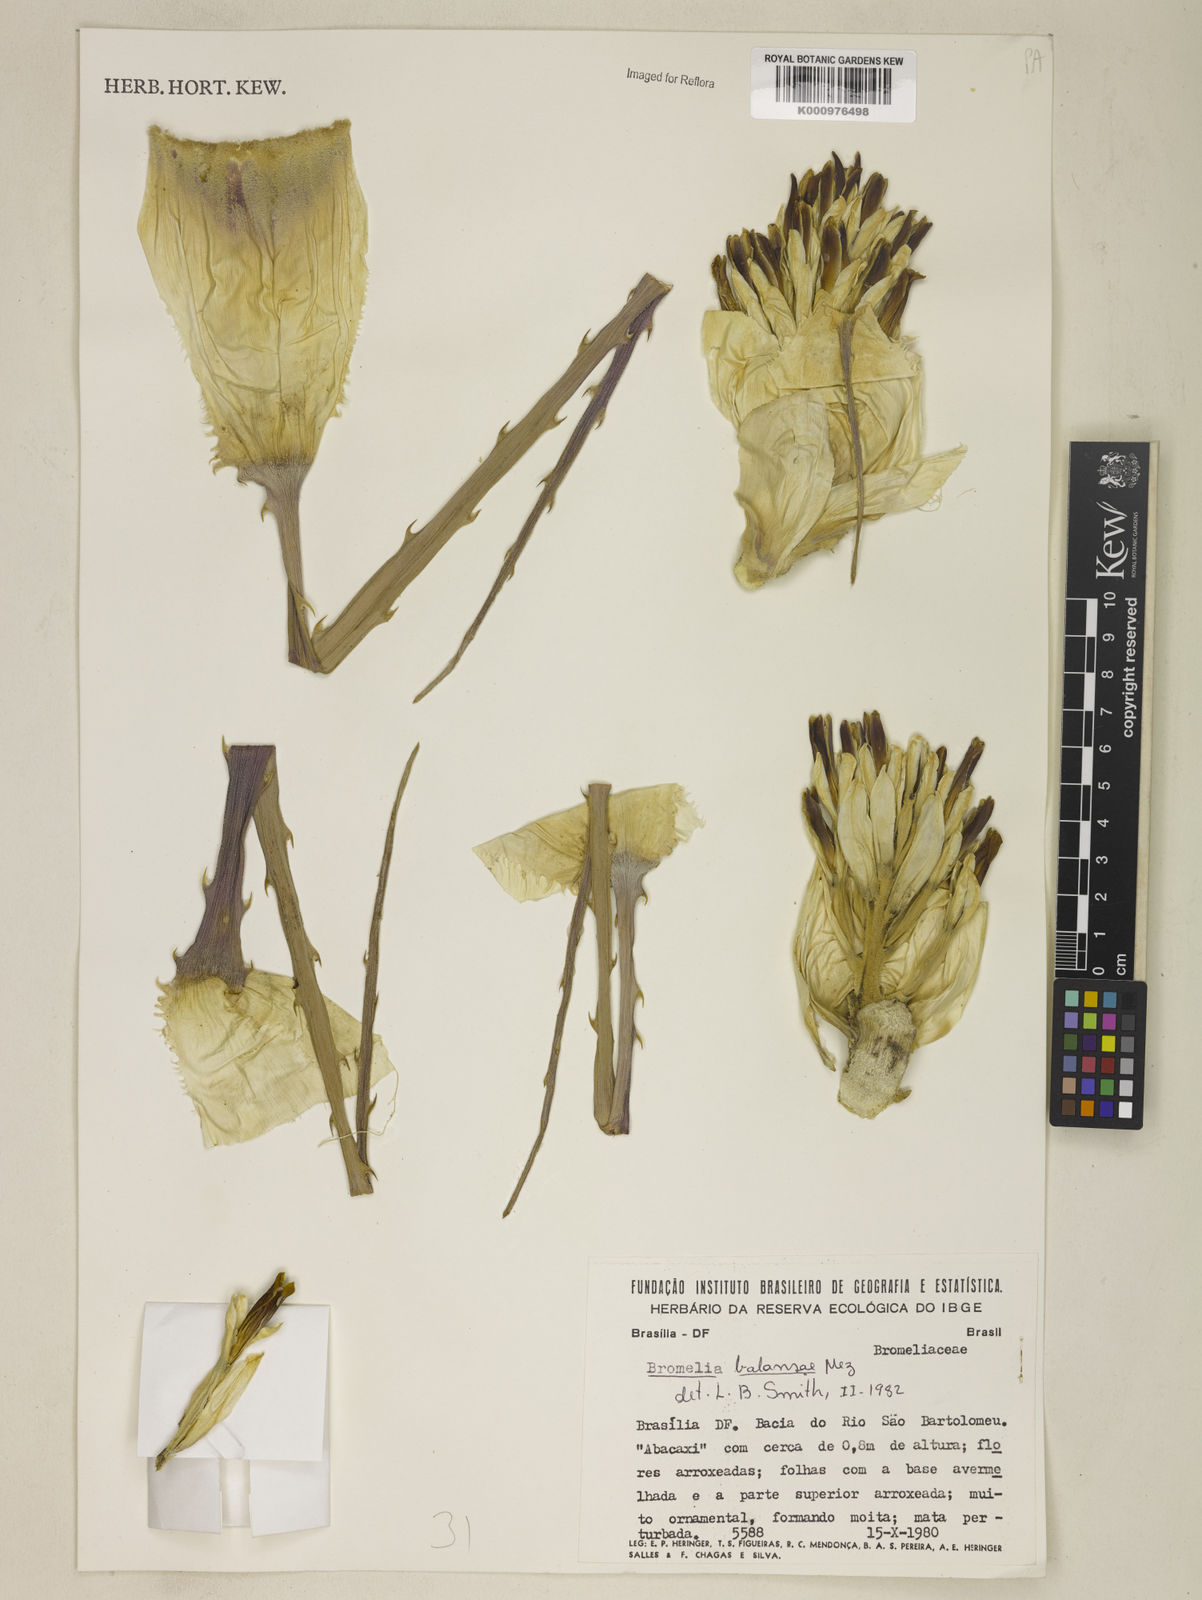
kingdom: Plantae
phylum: Tracheophyta
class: Liliopsida
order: Poales
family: Bromeliaceae
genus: Bromelia
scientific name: Bromelia balansae
